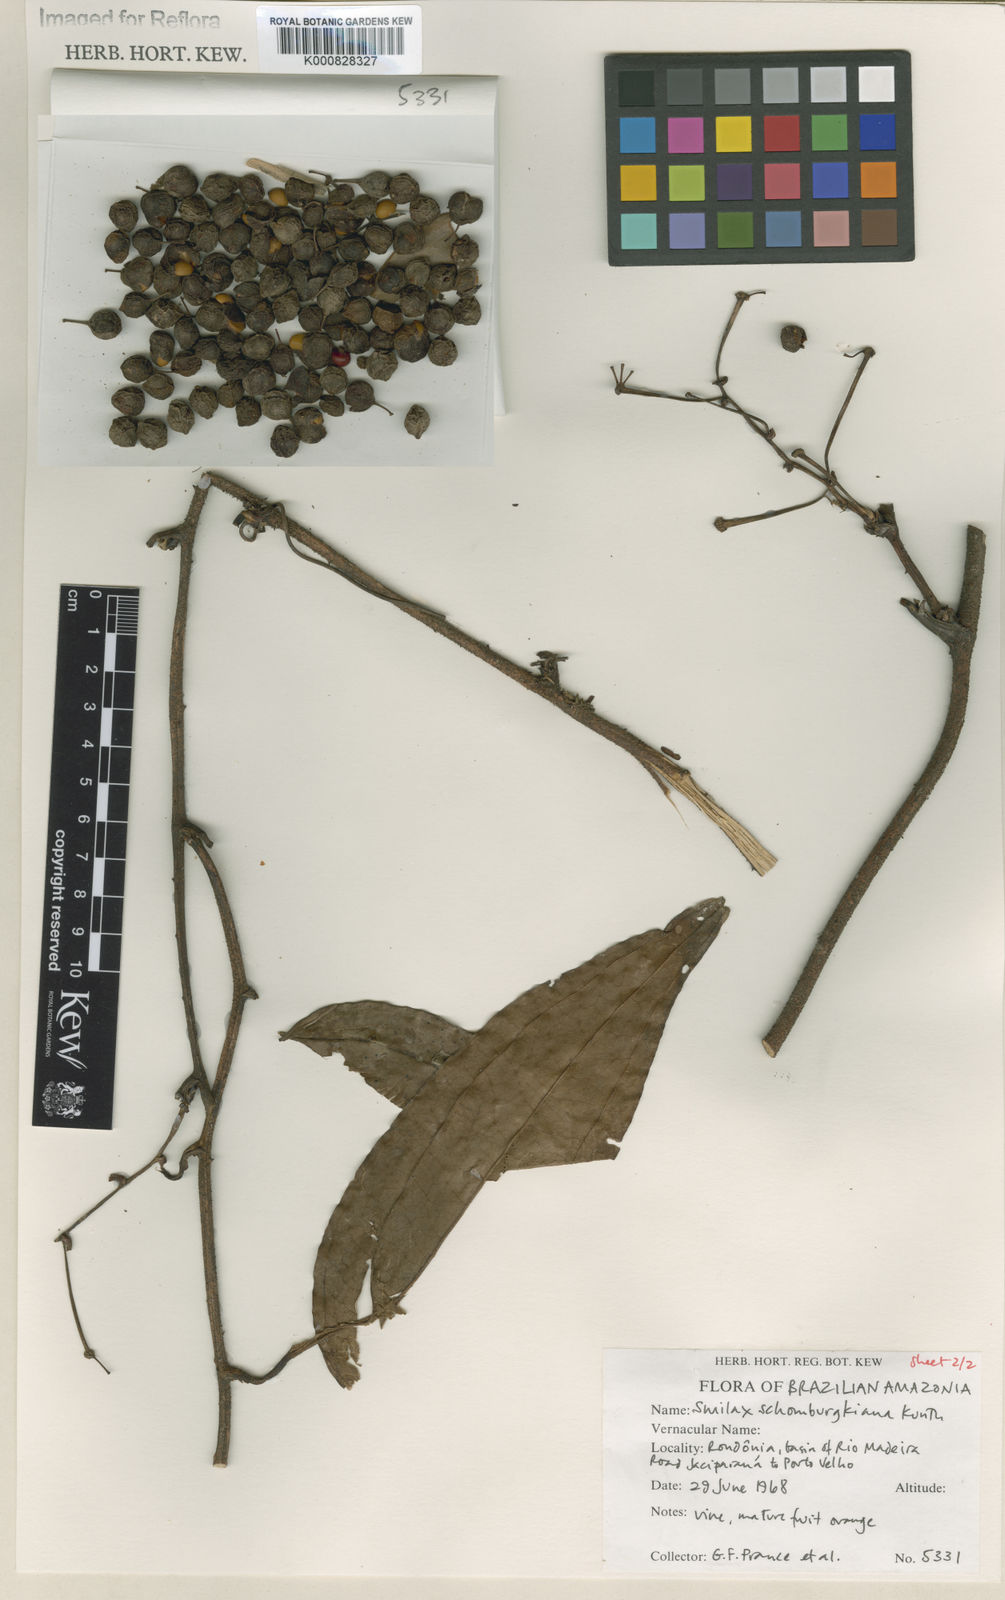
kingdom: Plantae
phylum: Tracheophyta
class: Liliopsida
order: Liliales
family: Smilacaceae
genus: Smilax
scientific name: Smilax schomburgkiana
